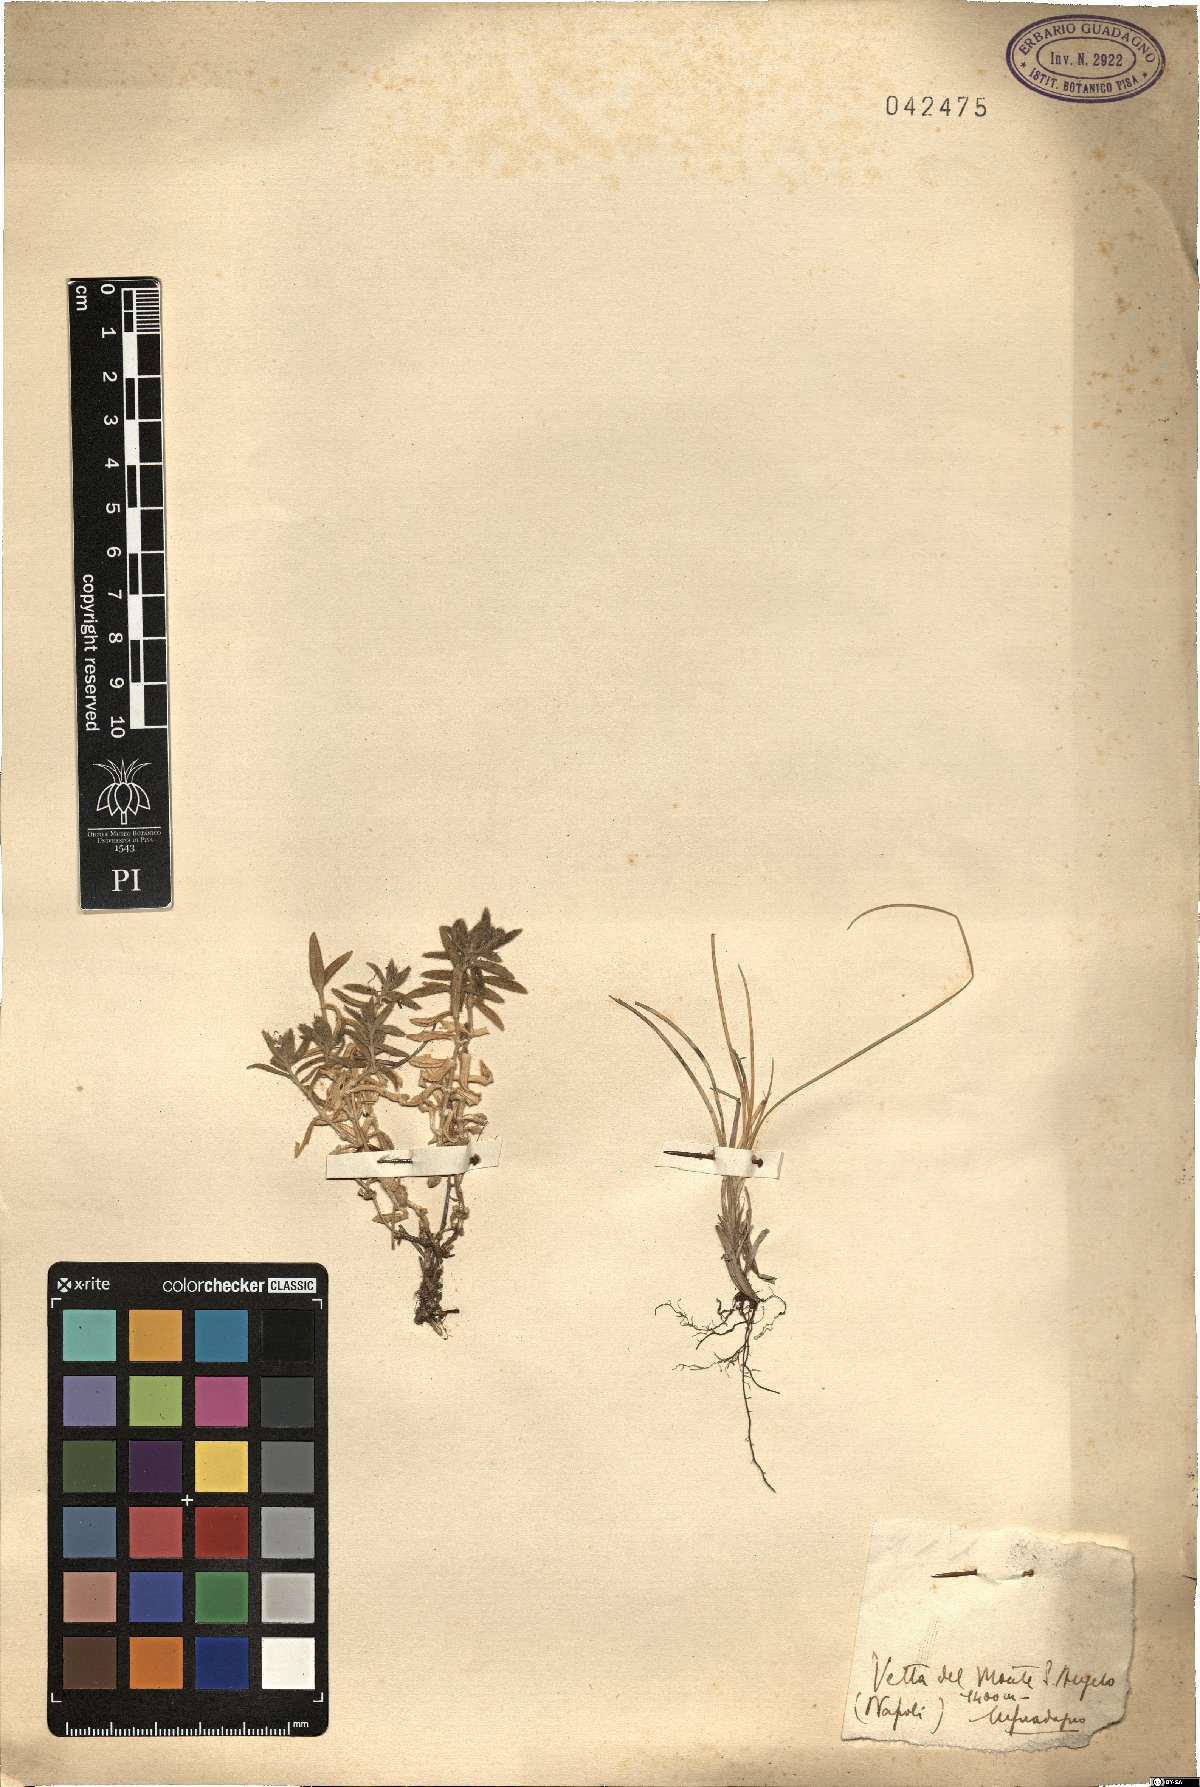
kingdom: Plantae
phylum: Tracheophyta
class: Magnoliopsida
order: Caryophyllales
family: Caryophyllaceae
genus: Cerastium
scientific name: Cerastium
